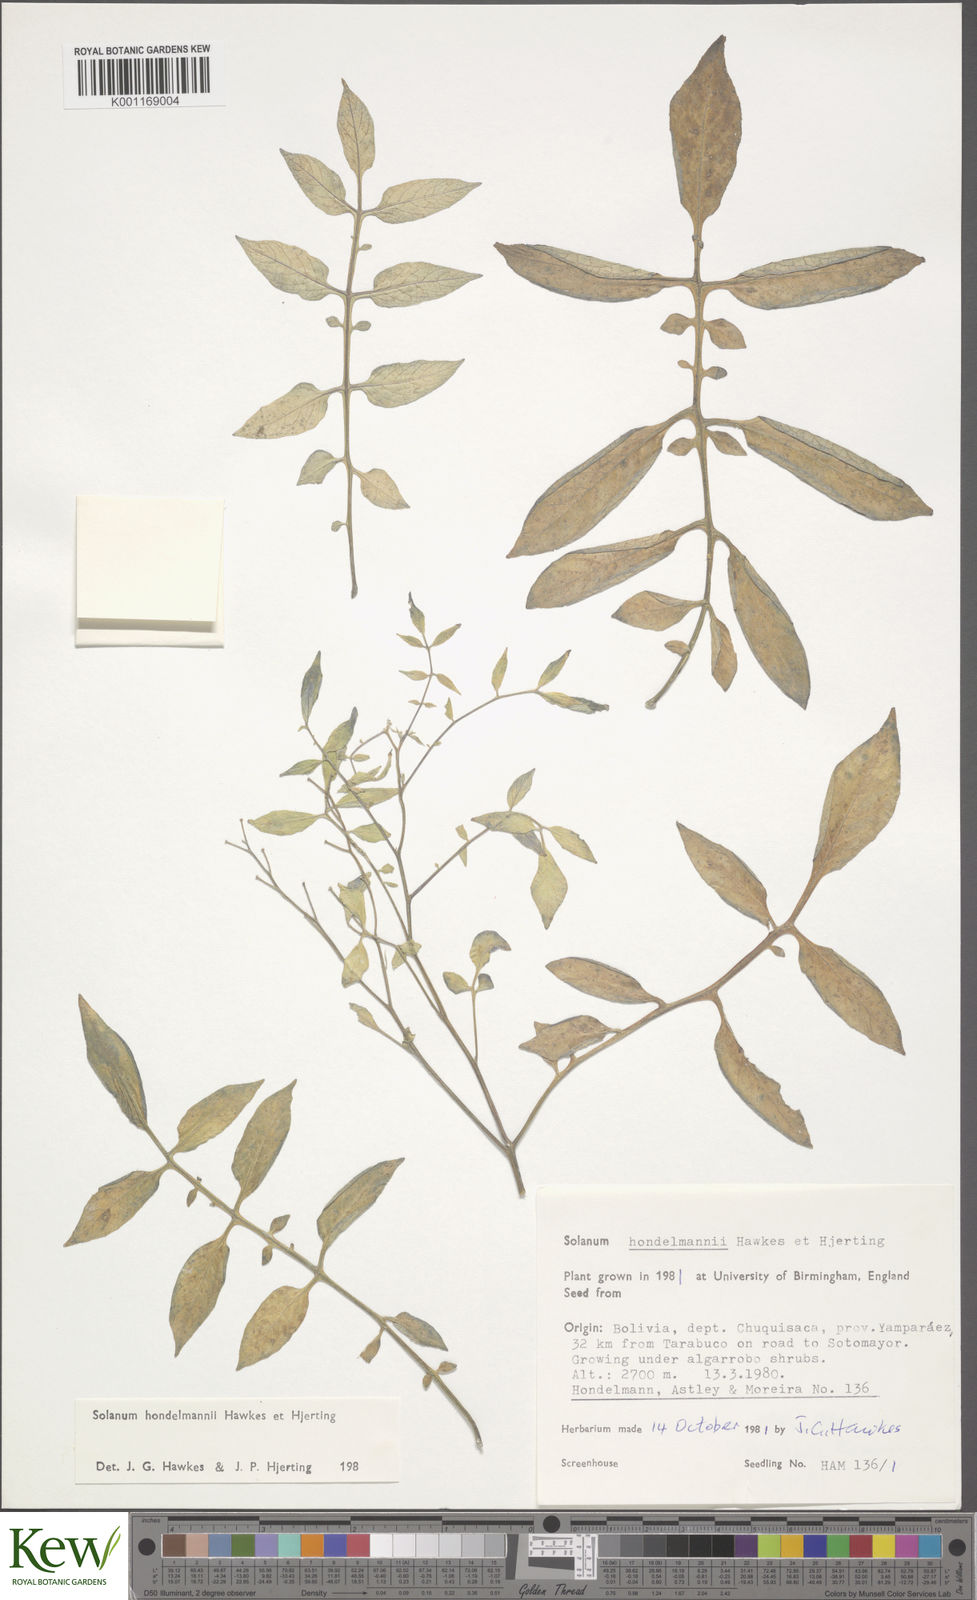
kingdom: Plantae
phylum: Tracheophyta
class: Magnoliopsida
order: Solanales
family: Solanaceae
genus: Solanum
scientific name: Solanum brevicaule
